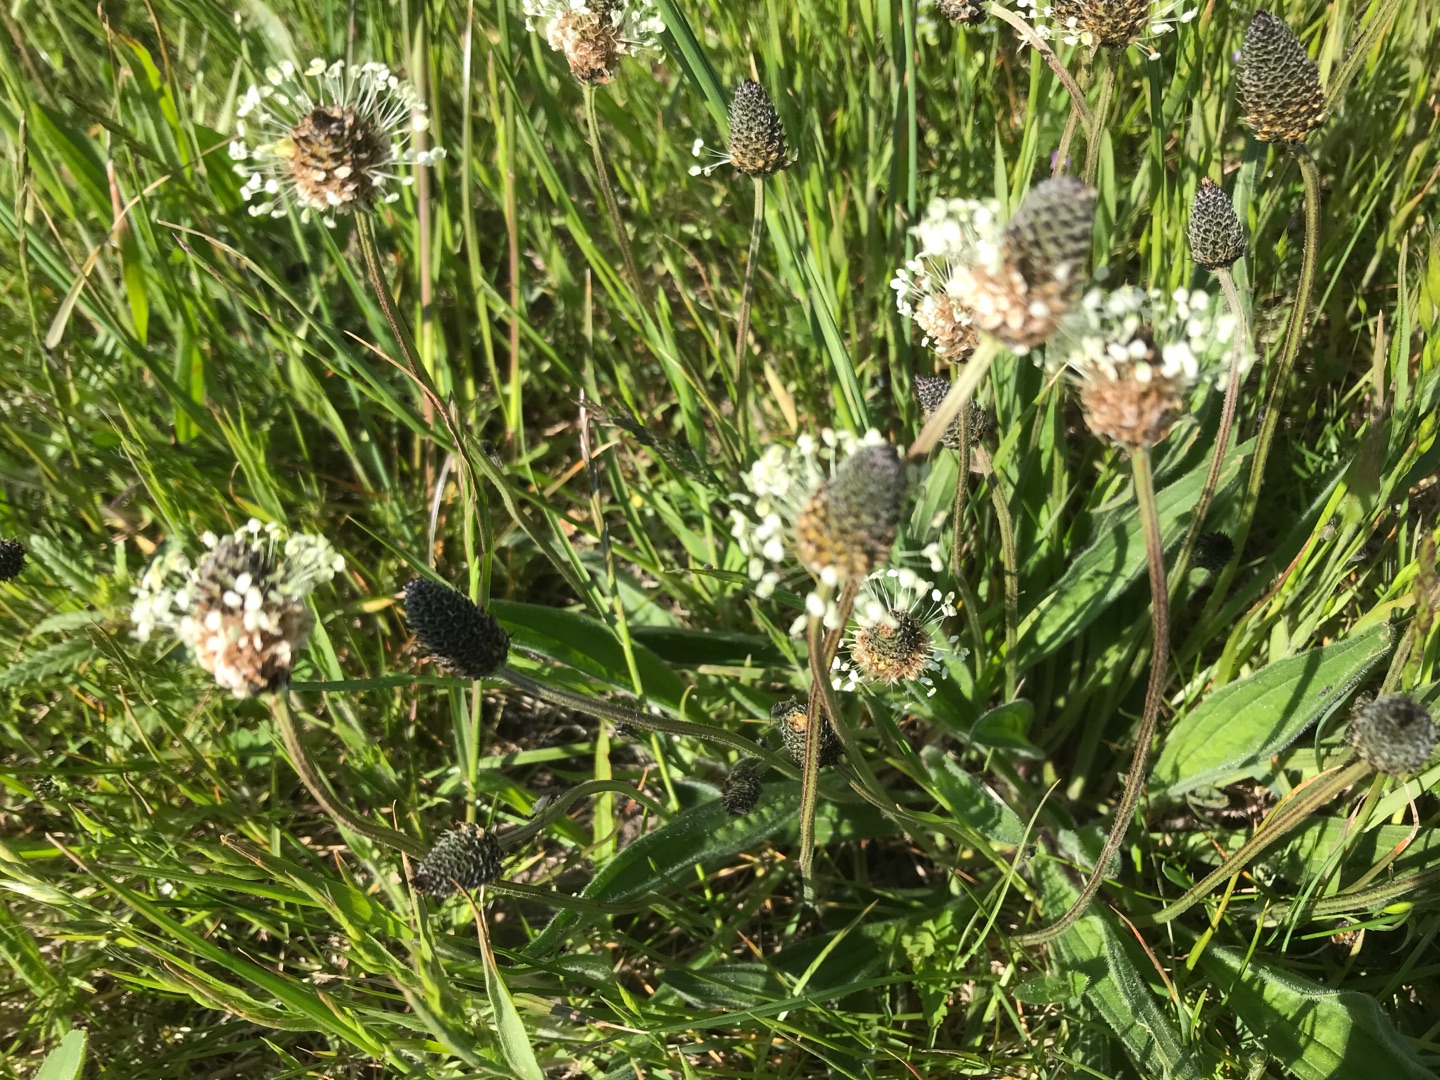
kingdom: Plantae
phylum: Tracheophyta
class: Magnoliopsida
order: Lamiales
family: Plantaginaceae
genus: Plantago
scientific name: Plantago lanceolata
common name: Lancet-vejbred
